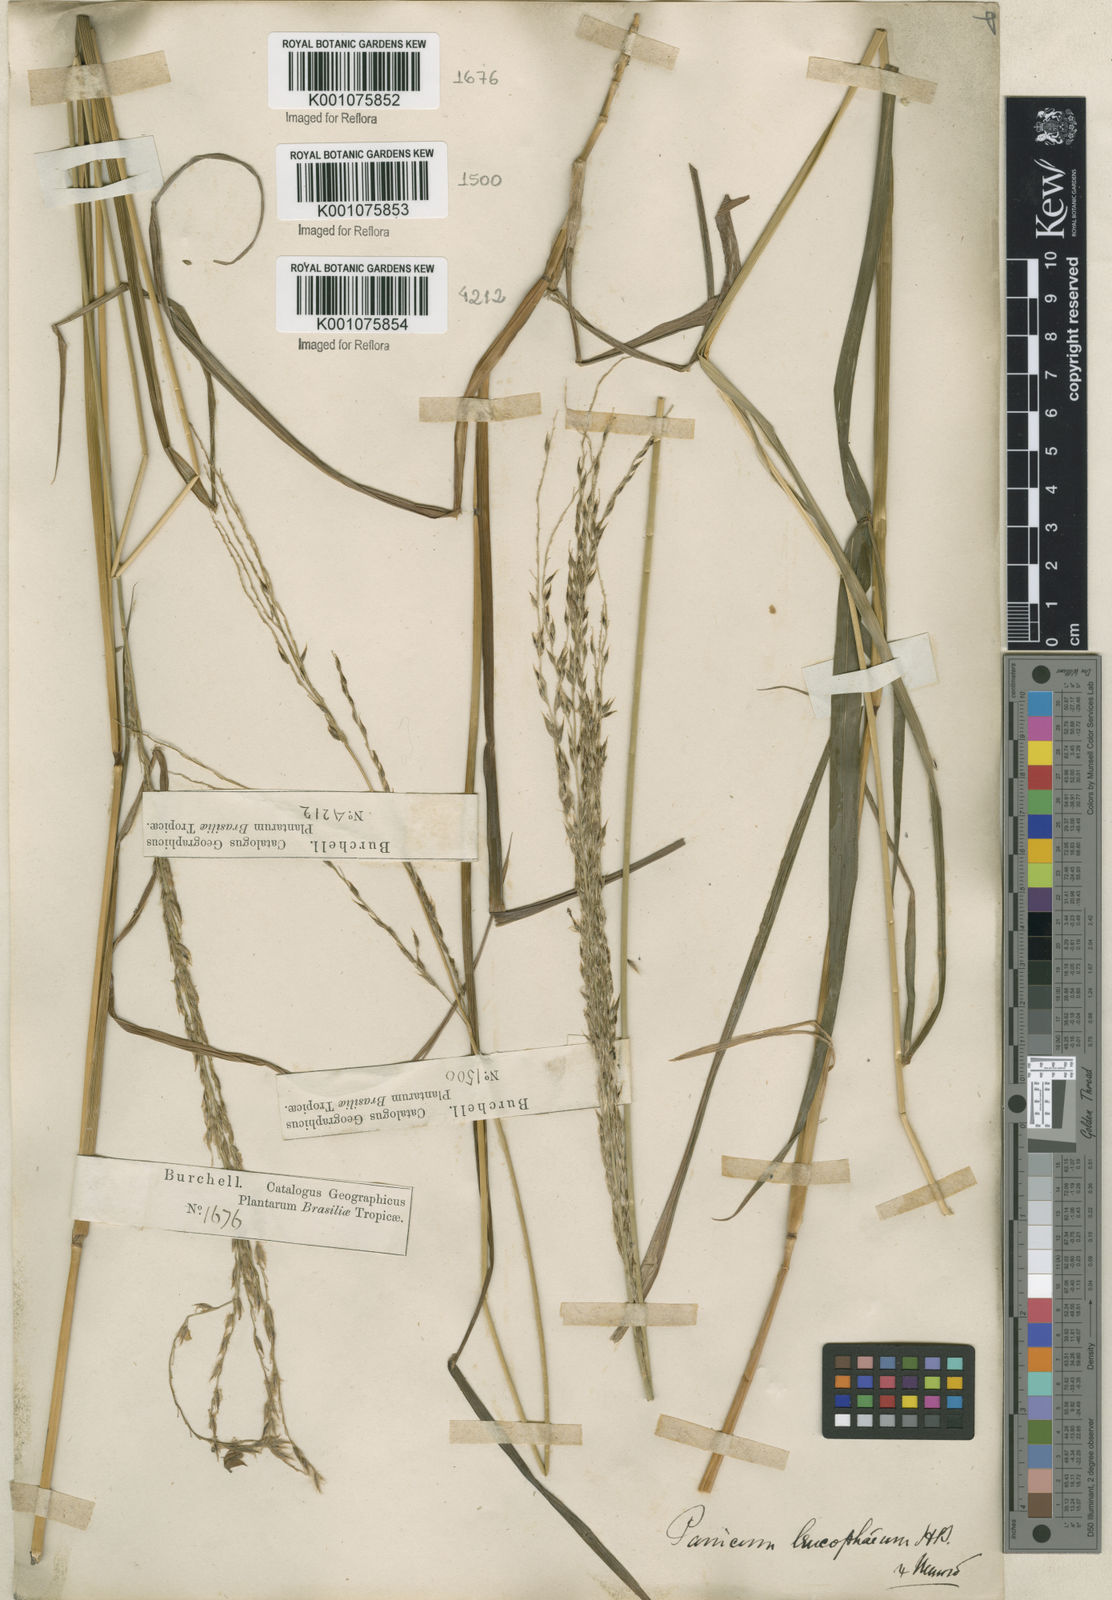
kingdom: Plantae
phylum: Tracheophyta
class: Liliopsida
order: Poales
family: Poaceae
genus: Digitaria
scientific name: Digitaria
